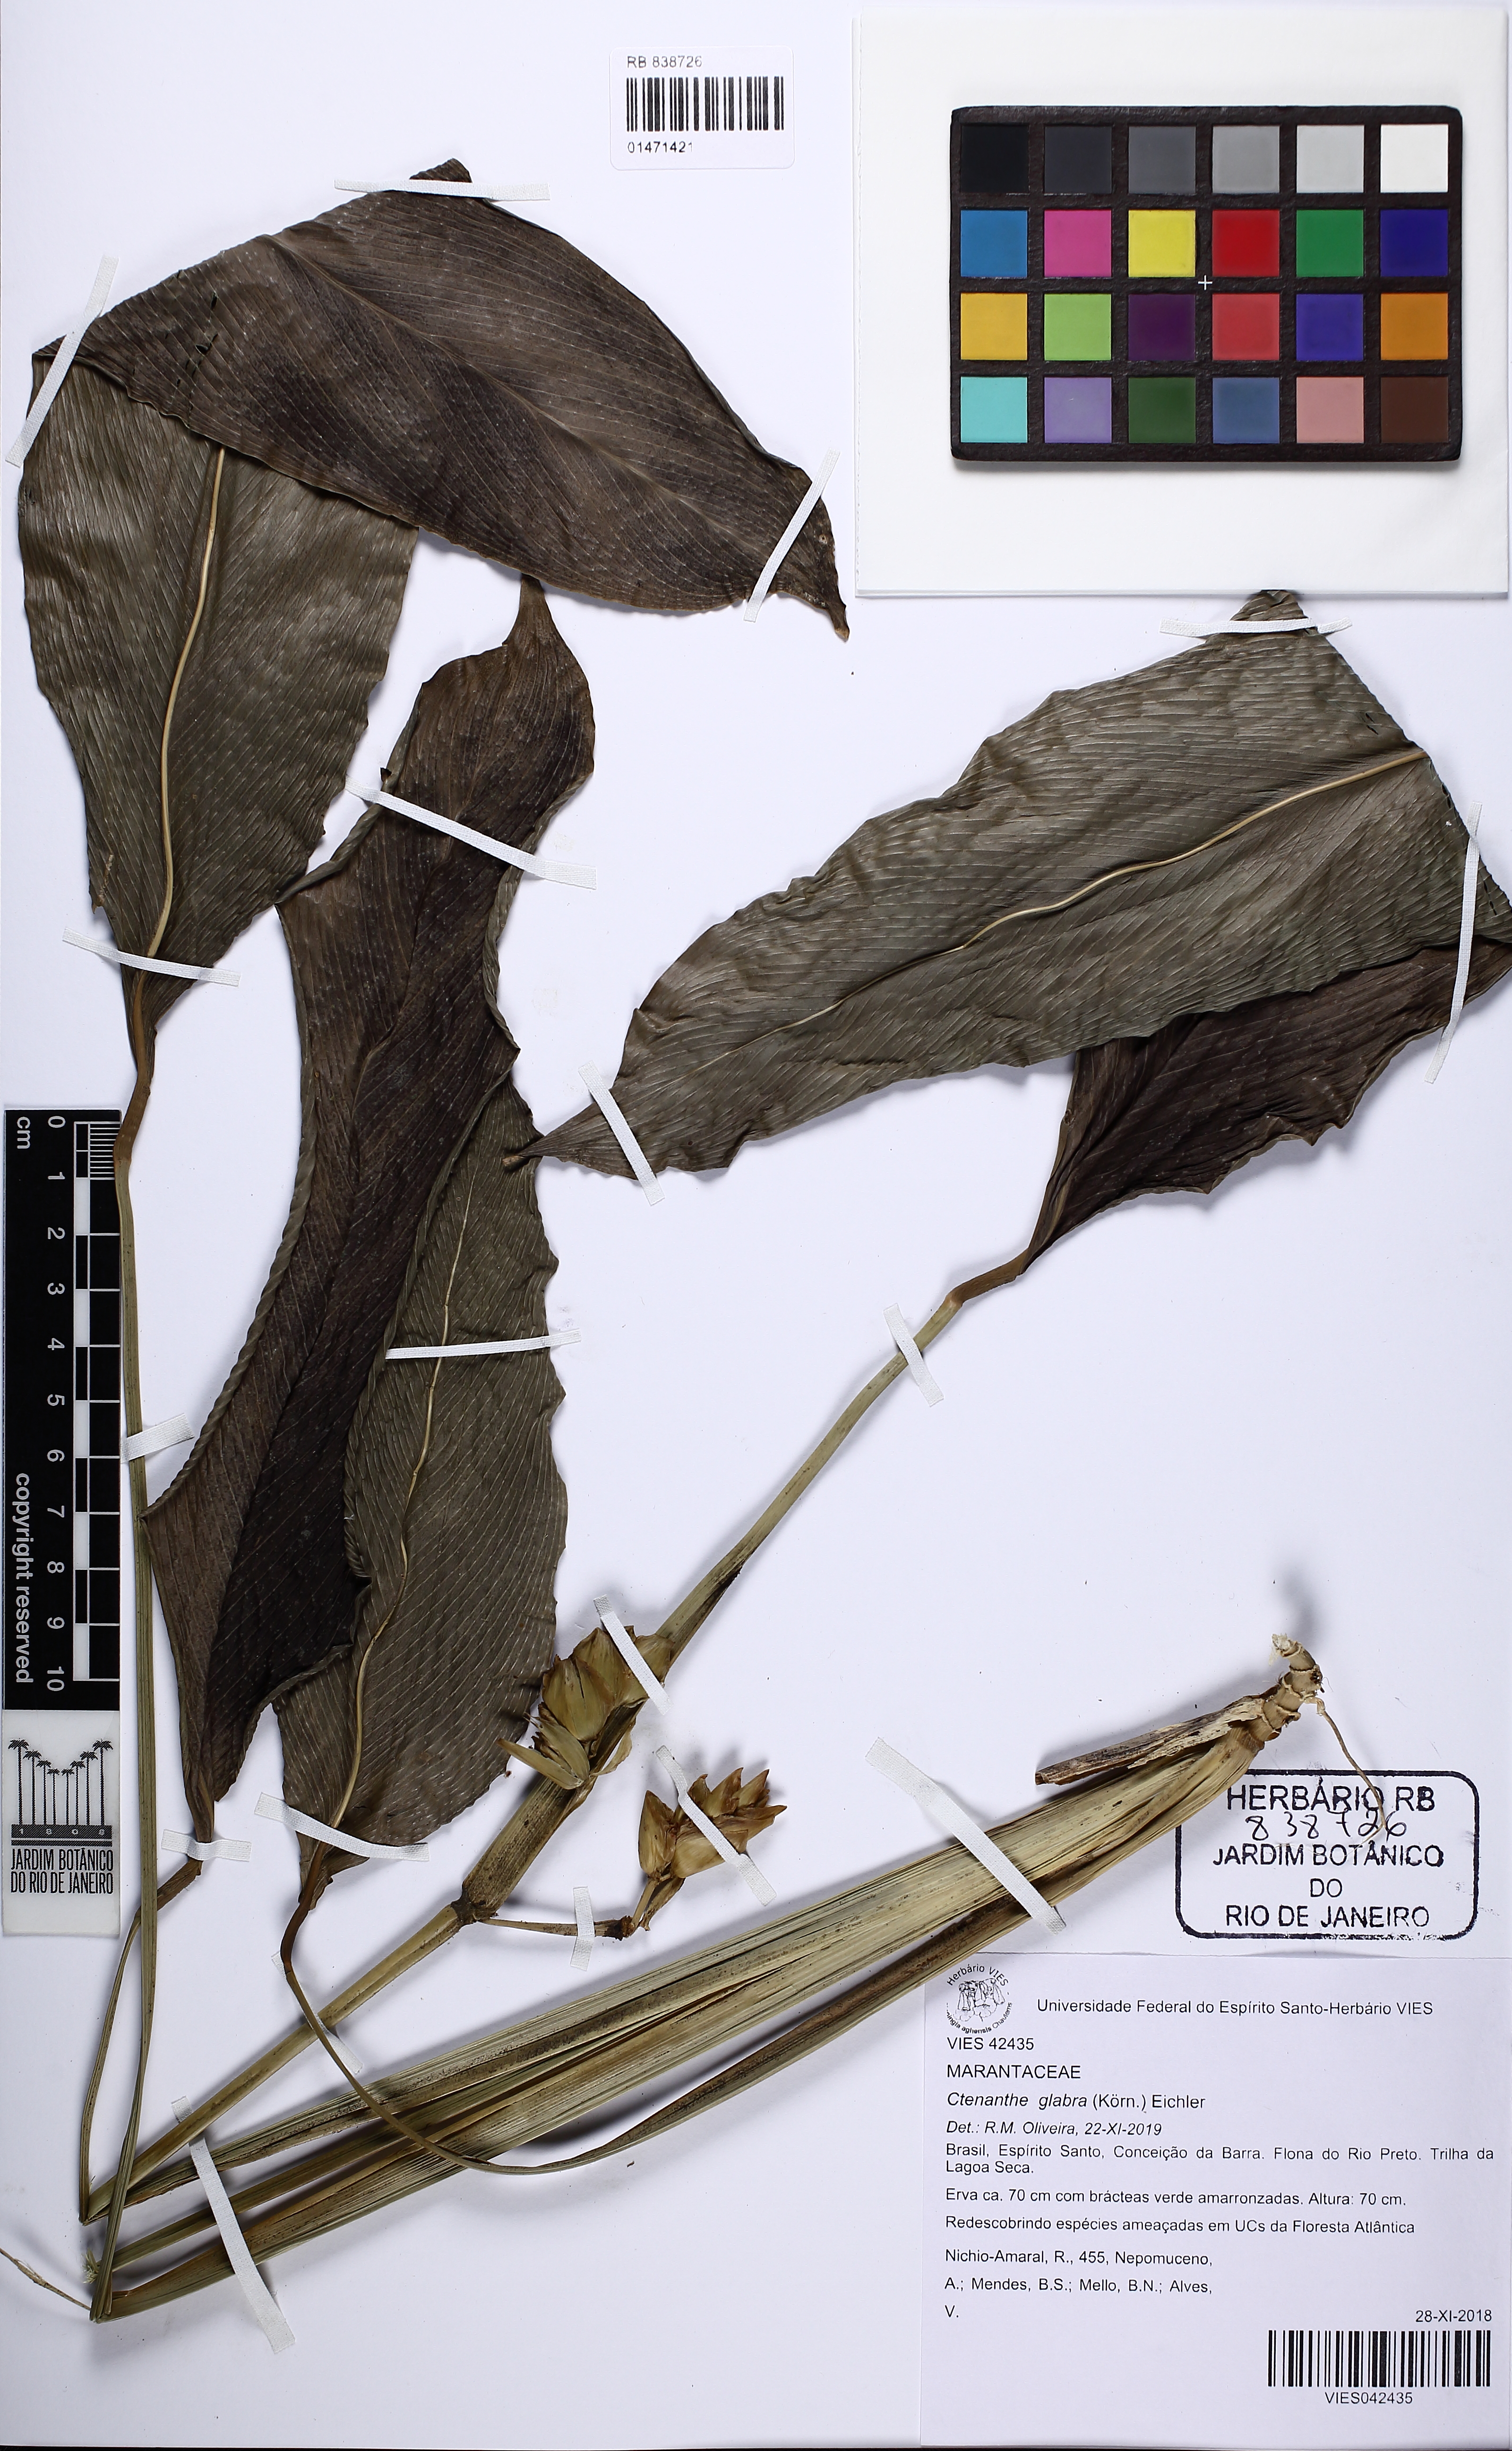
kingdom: Plantae
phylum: Tracheophyta
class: Liliopsida
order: Zingiberales
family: Marantaceae
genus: Ctenanthe
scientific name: Ctenanthe glabra
